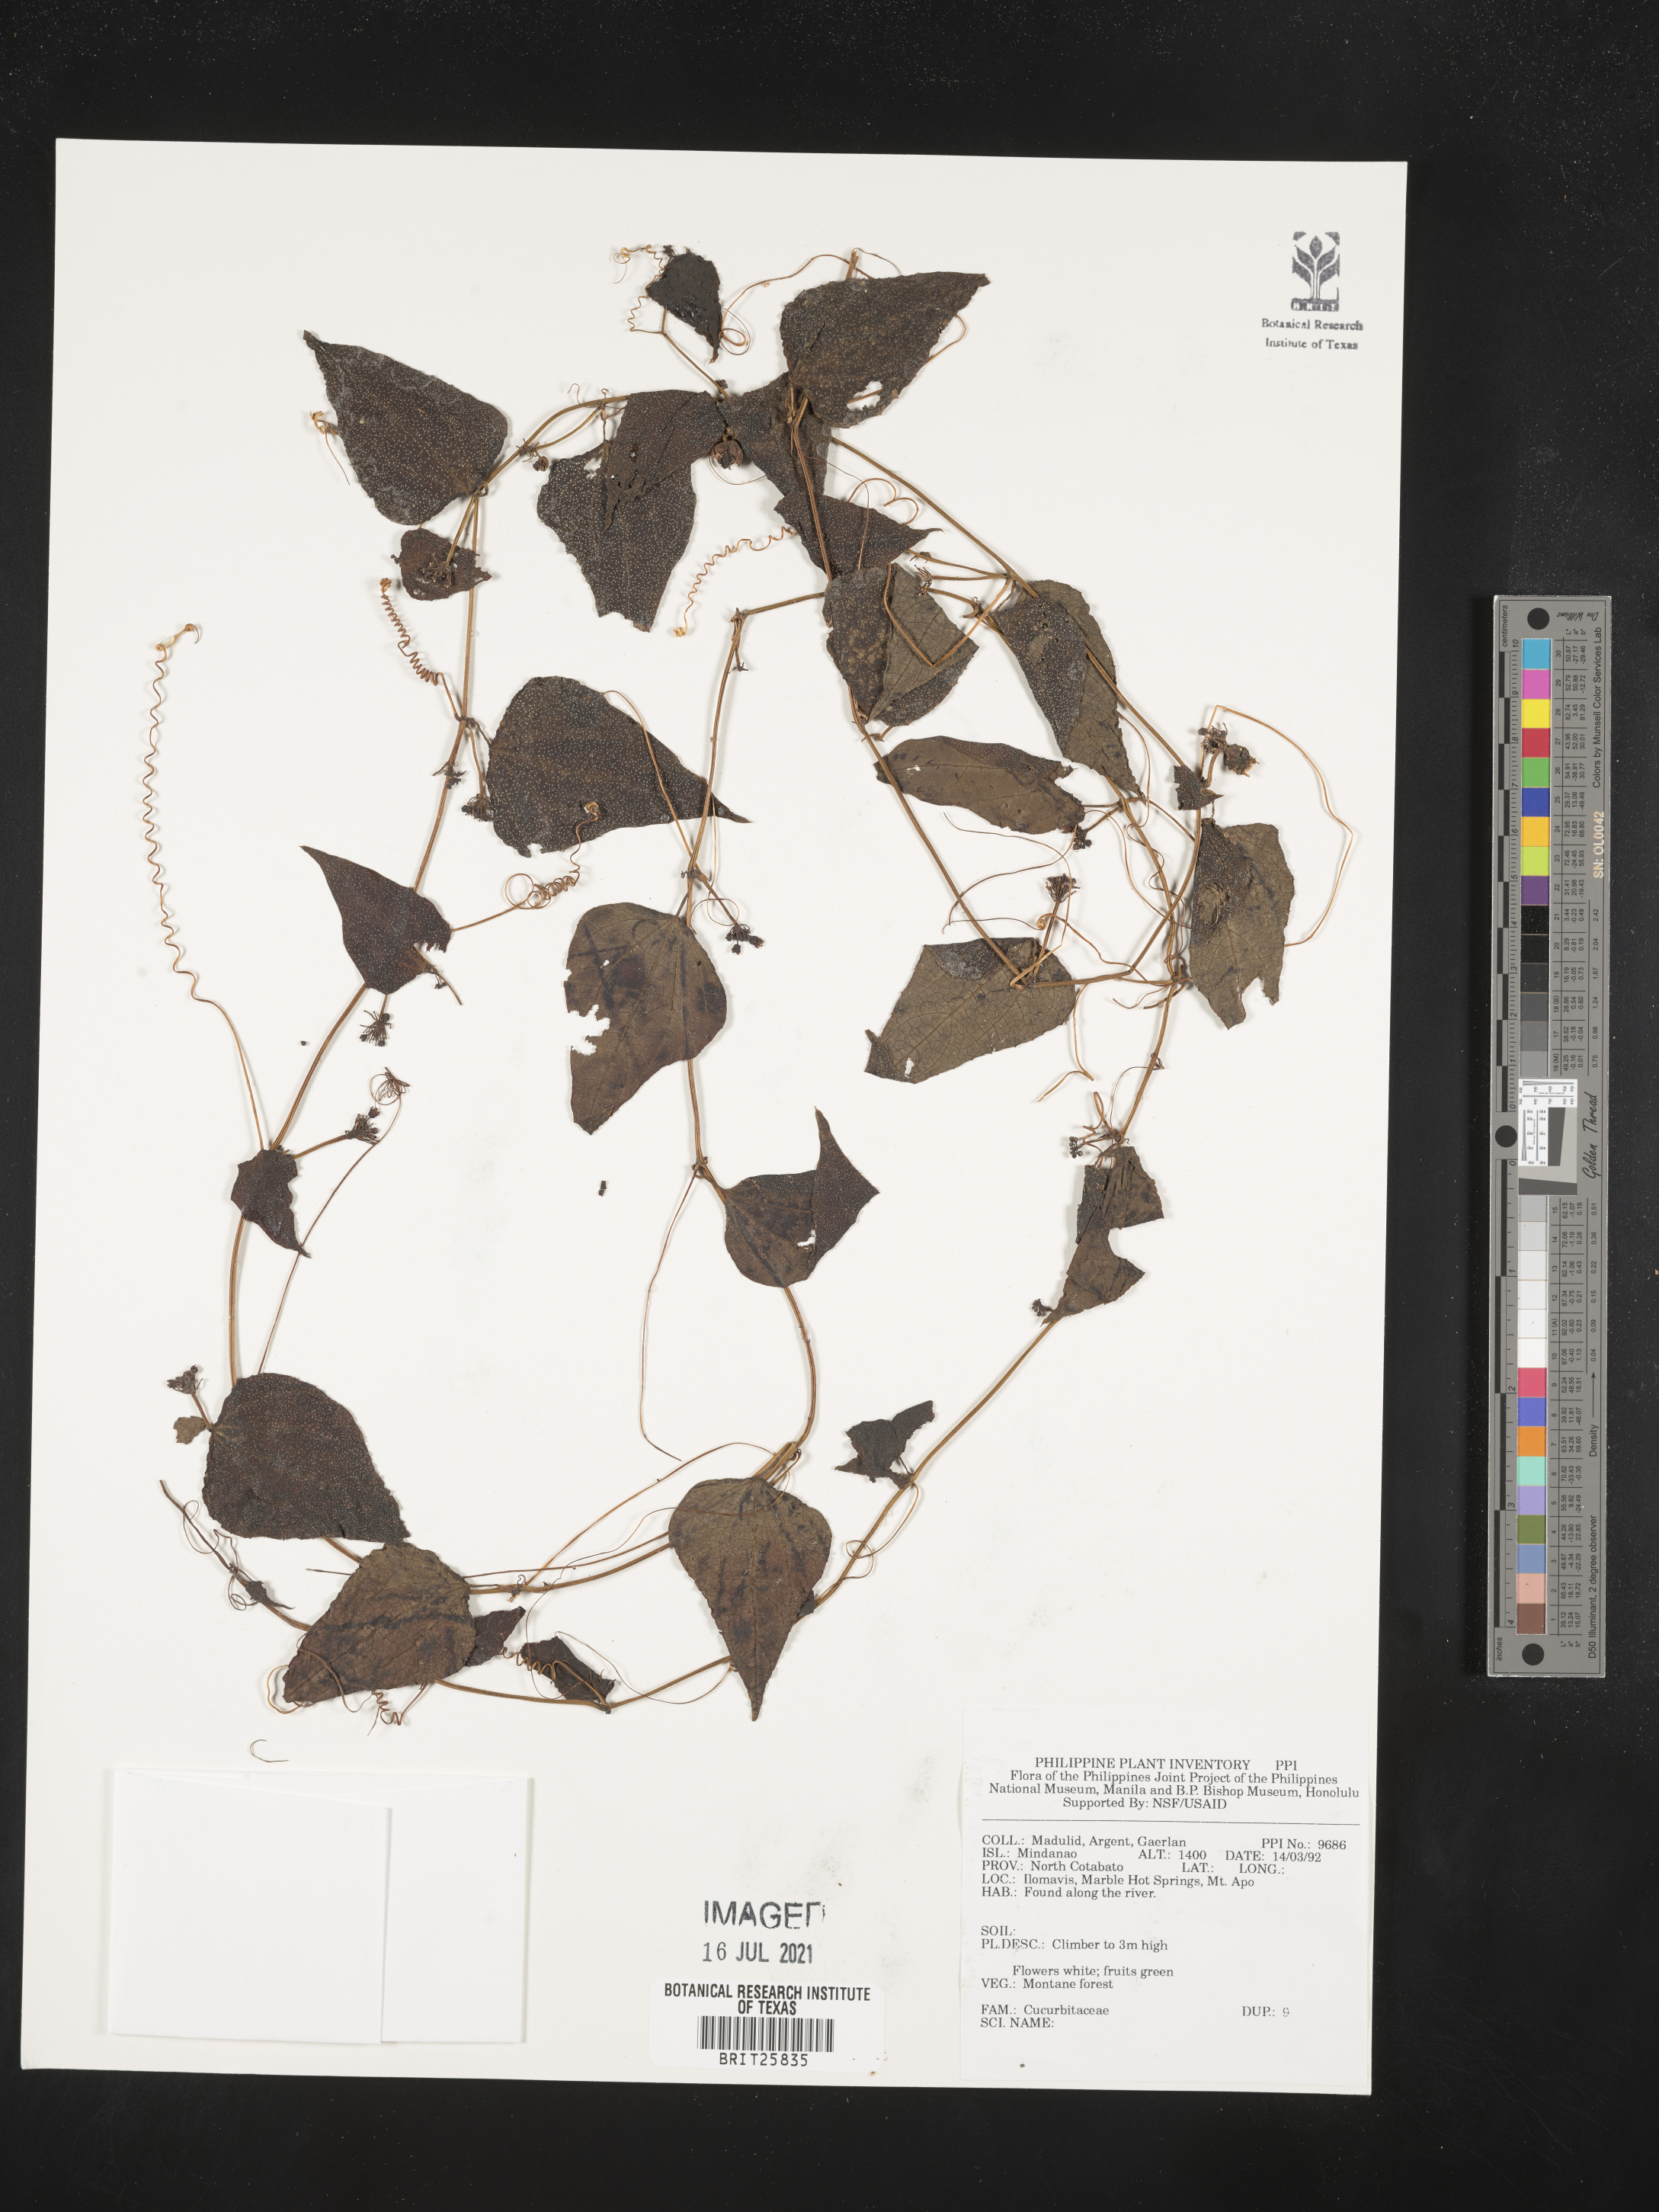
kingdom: Plantae
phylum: Tracheophyta
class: Magnoliopsida
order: Cucurbitales
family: Cucurbitaceae
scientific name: Cucurbitaceae
